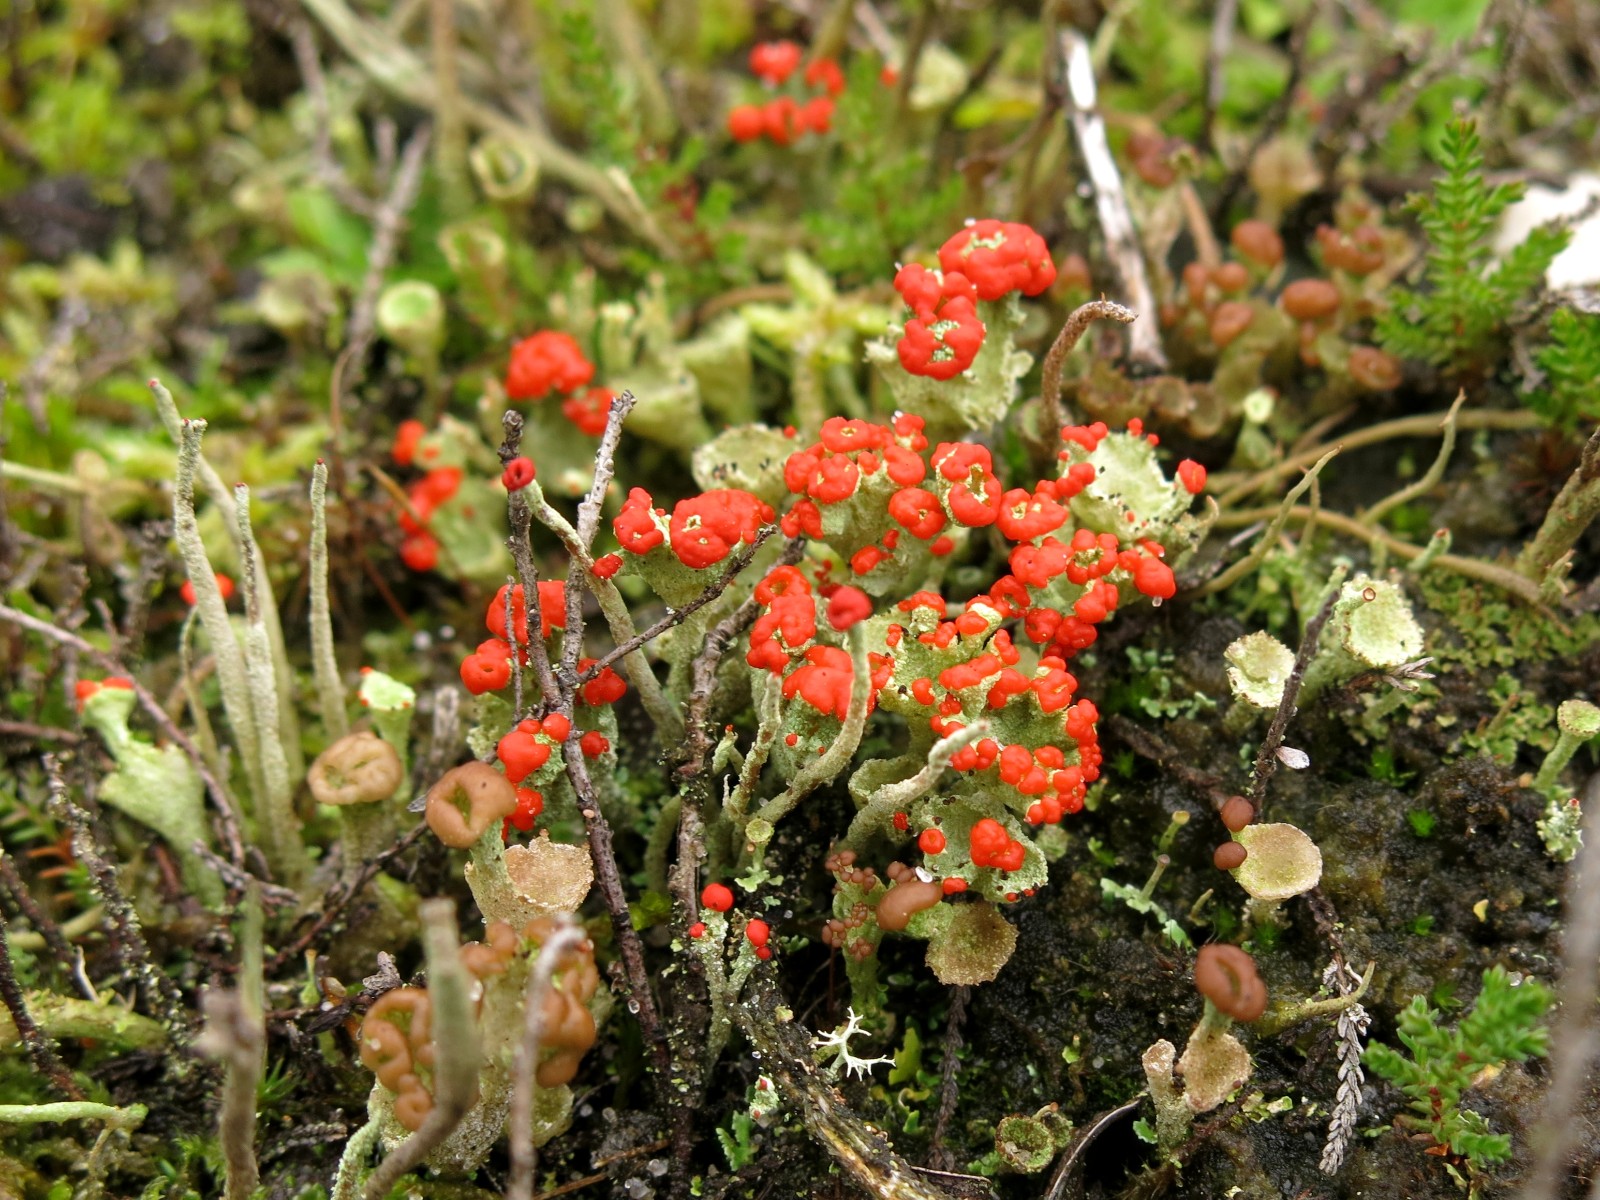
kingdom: Fungi
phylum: Ascomycota
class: Lecanoromycetes
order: Lecanorales
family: Cladoniaceae
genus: Cladonia
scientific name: Cladonia diversa
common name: rød bægerlav
